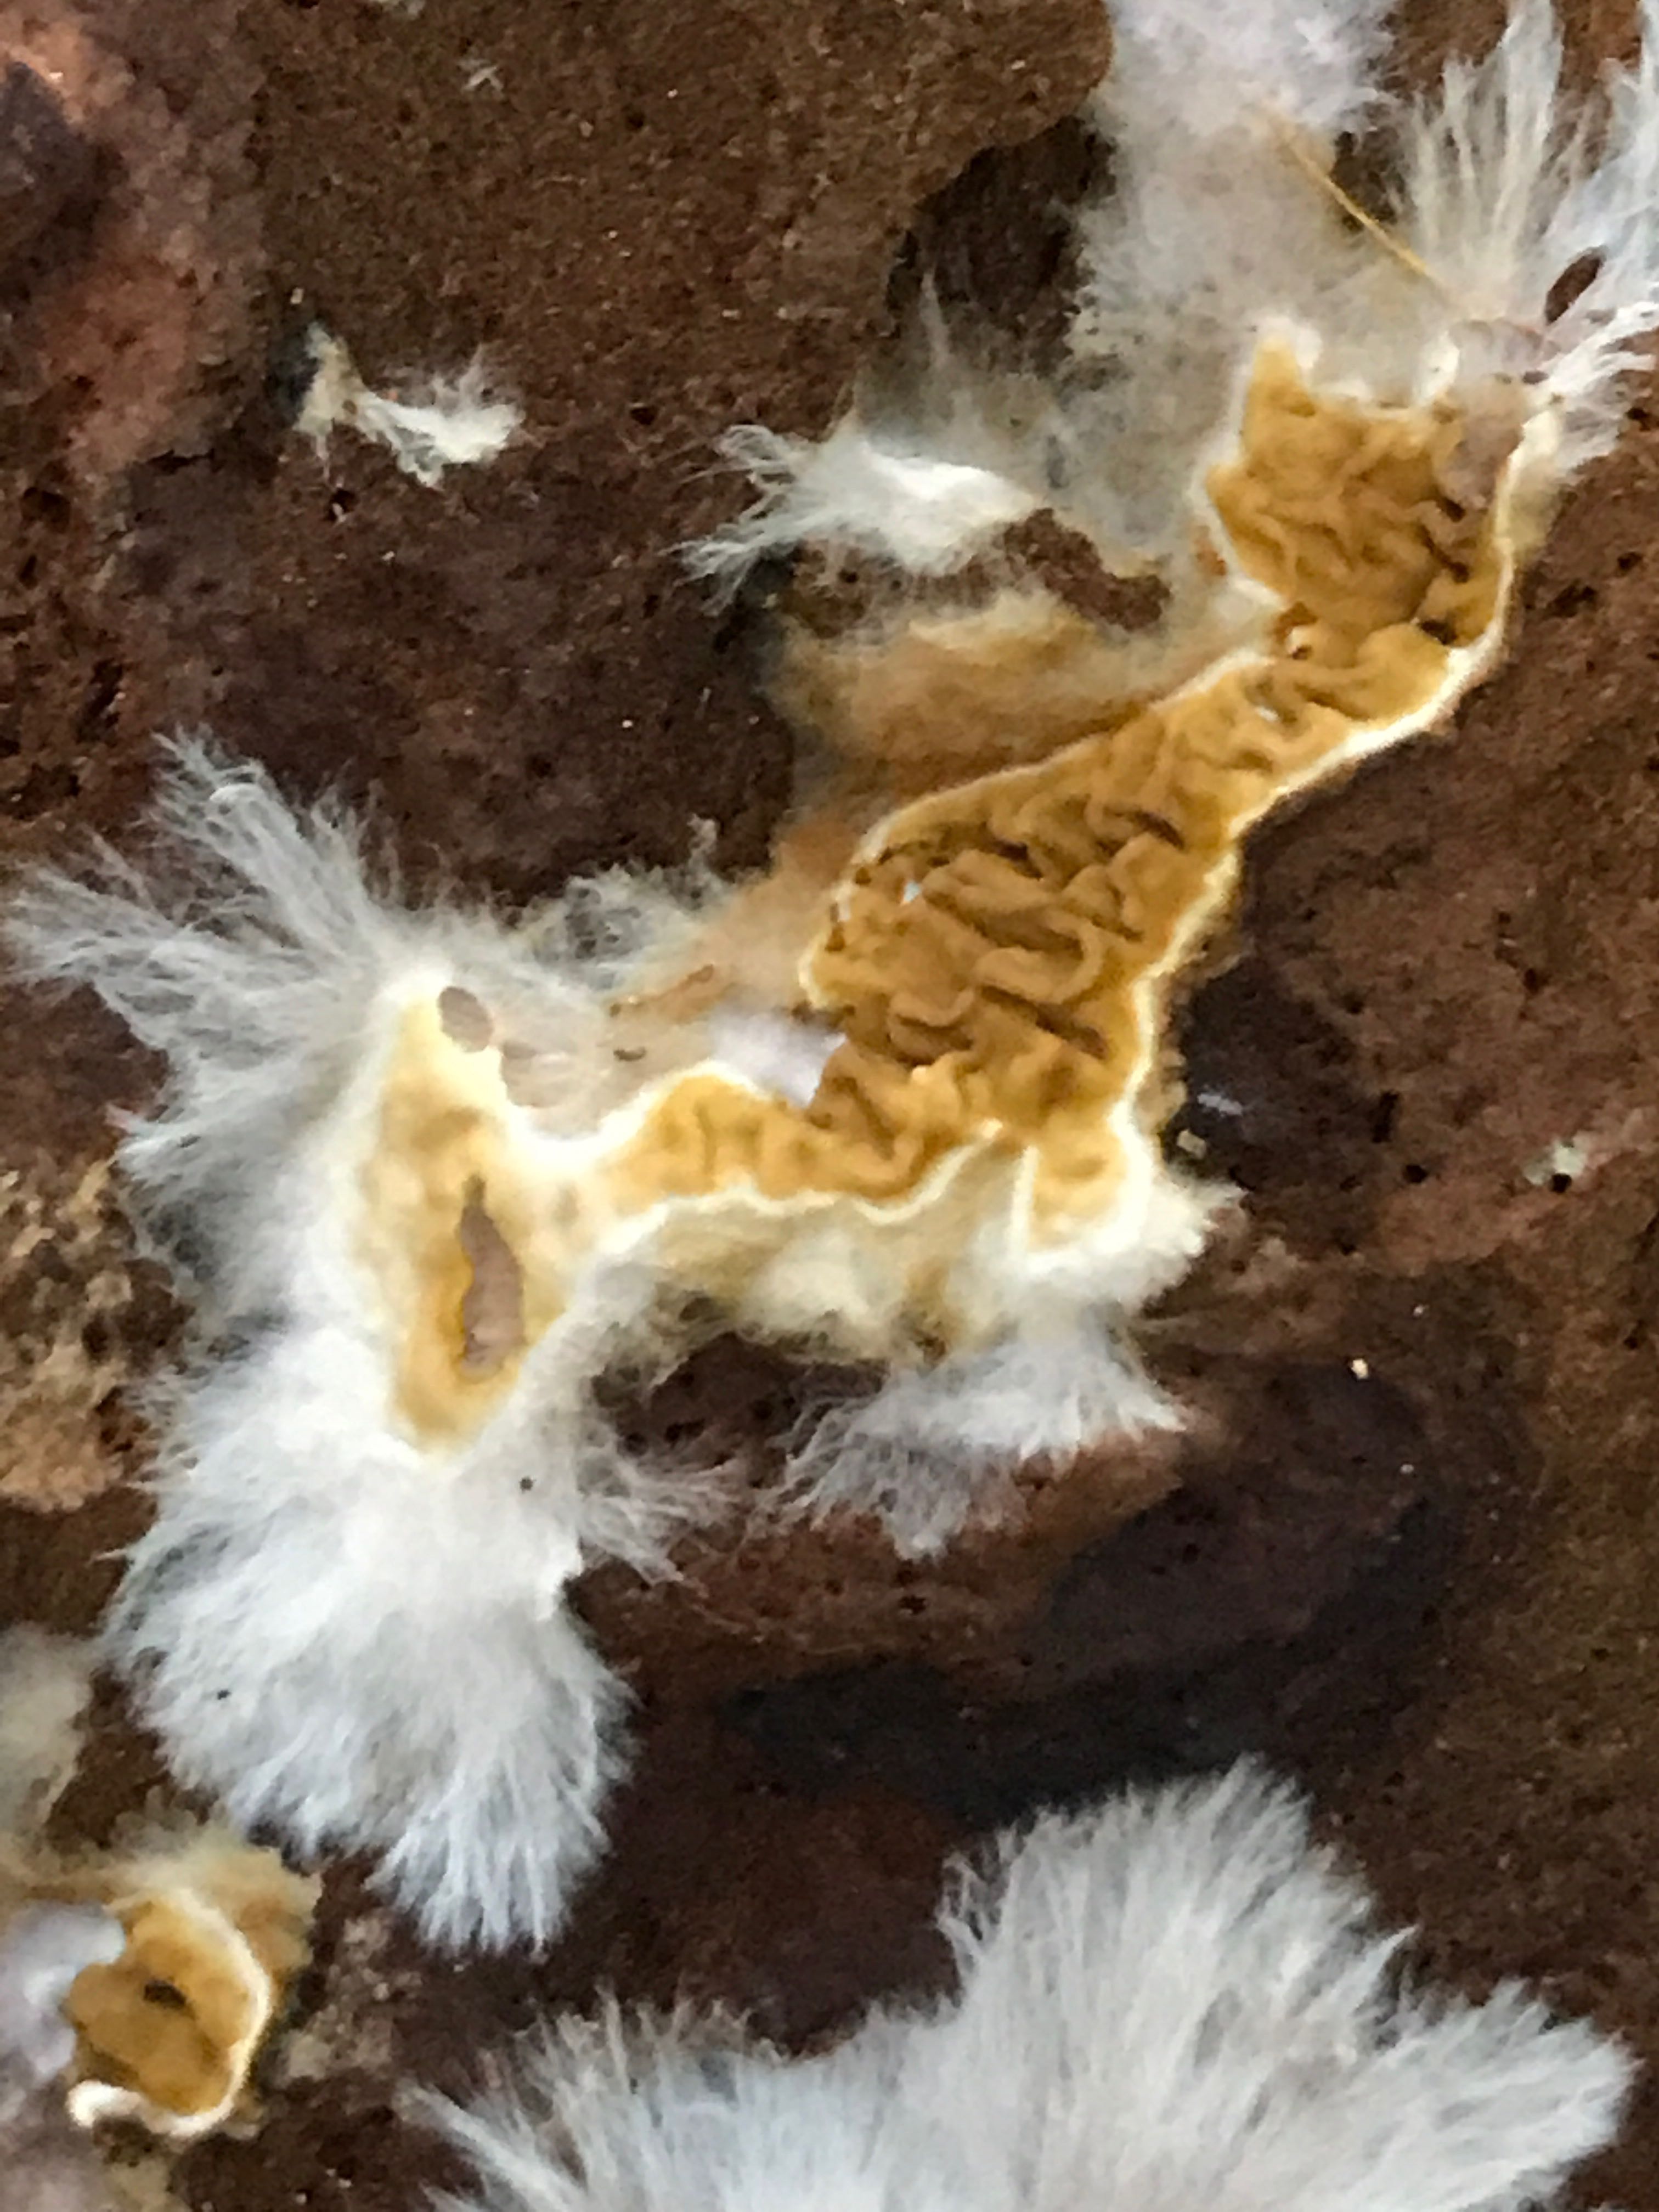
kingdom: Fungi
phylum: Basidiomycota
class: Agaricomycetes
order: Boletales
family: Serpulaceae
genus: Serpula
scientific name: Serpula himantioides
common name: tyndkødet hussvamp
